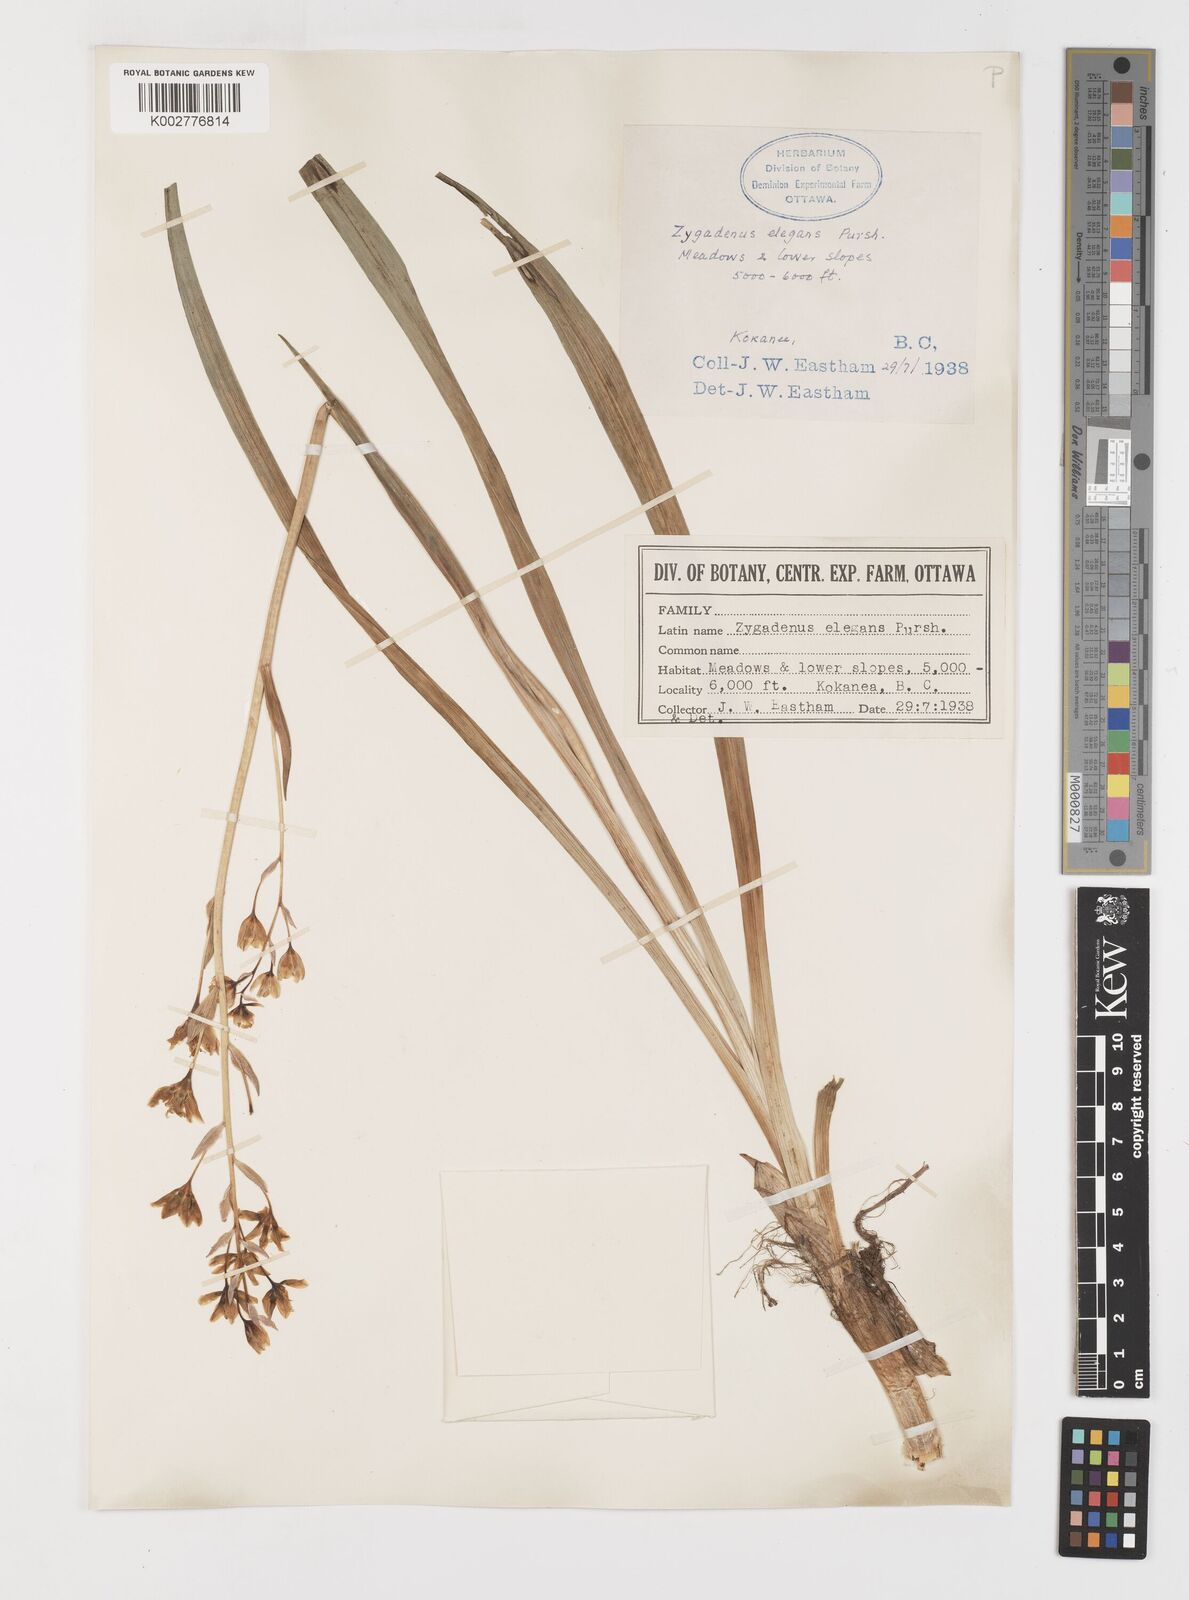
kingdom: Plantae
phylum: Tracheophyta
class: Liliopsida
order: Liliales
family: Melanthiaceae
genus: Anticlea
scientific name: Anticlea elegans
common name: Mountain death camas
